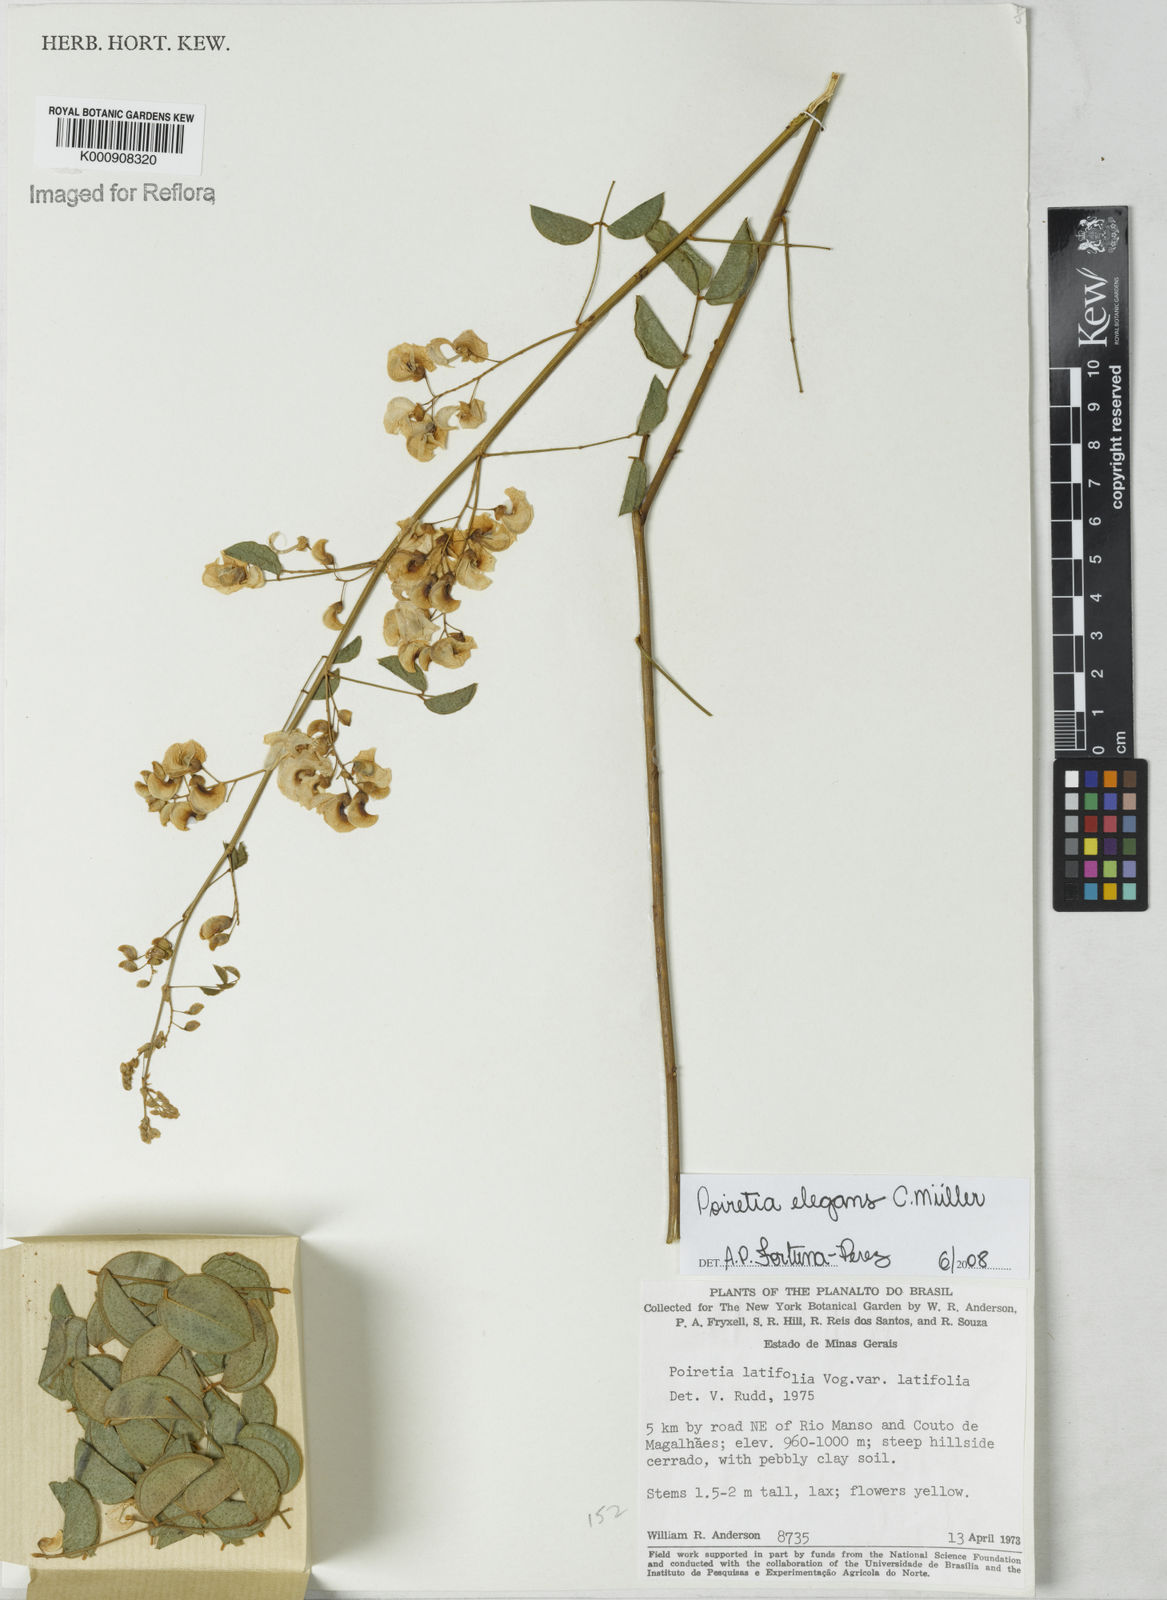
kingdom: Plantae
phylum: Tracheophyta
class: Magnoliopsida
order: Fabales
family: Fabaceae
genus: Poiretia
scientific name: Poiretia
